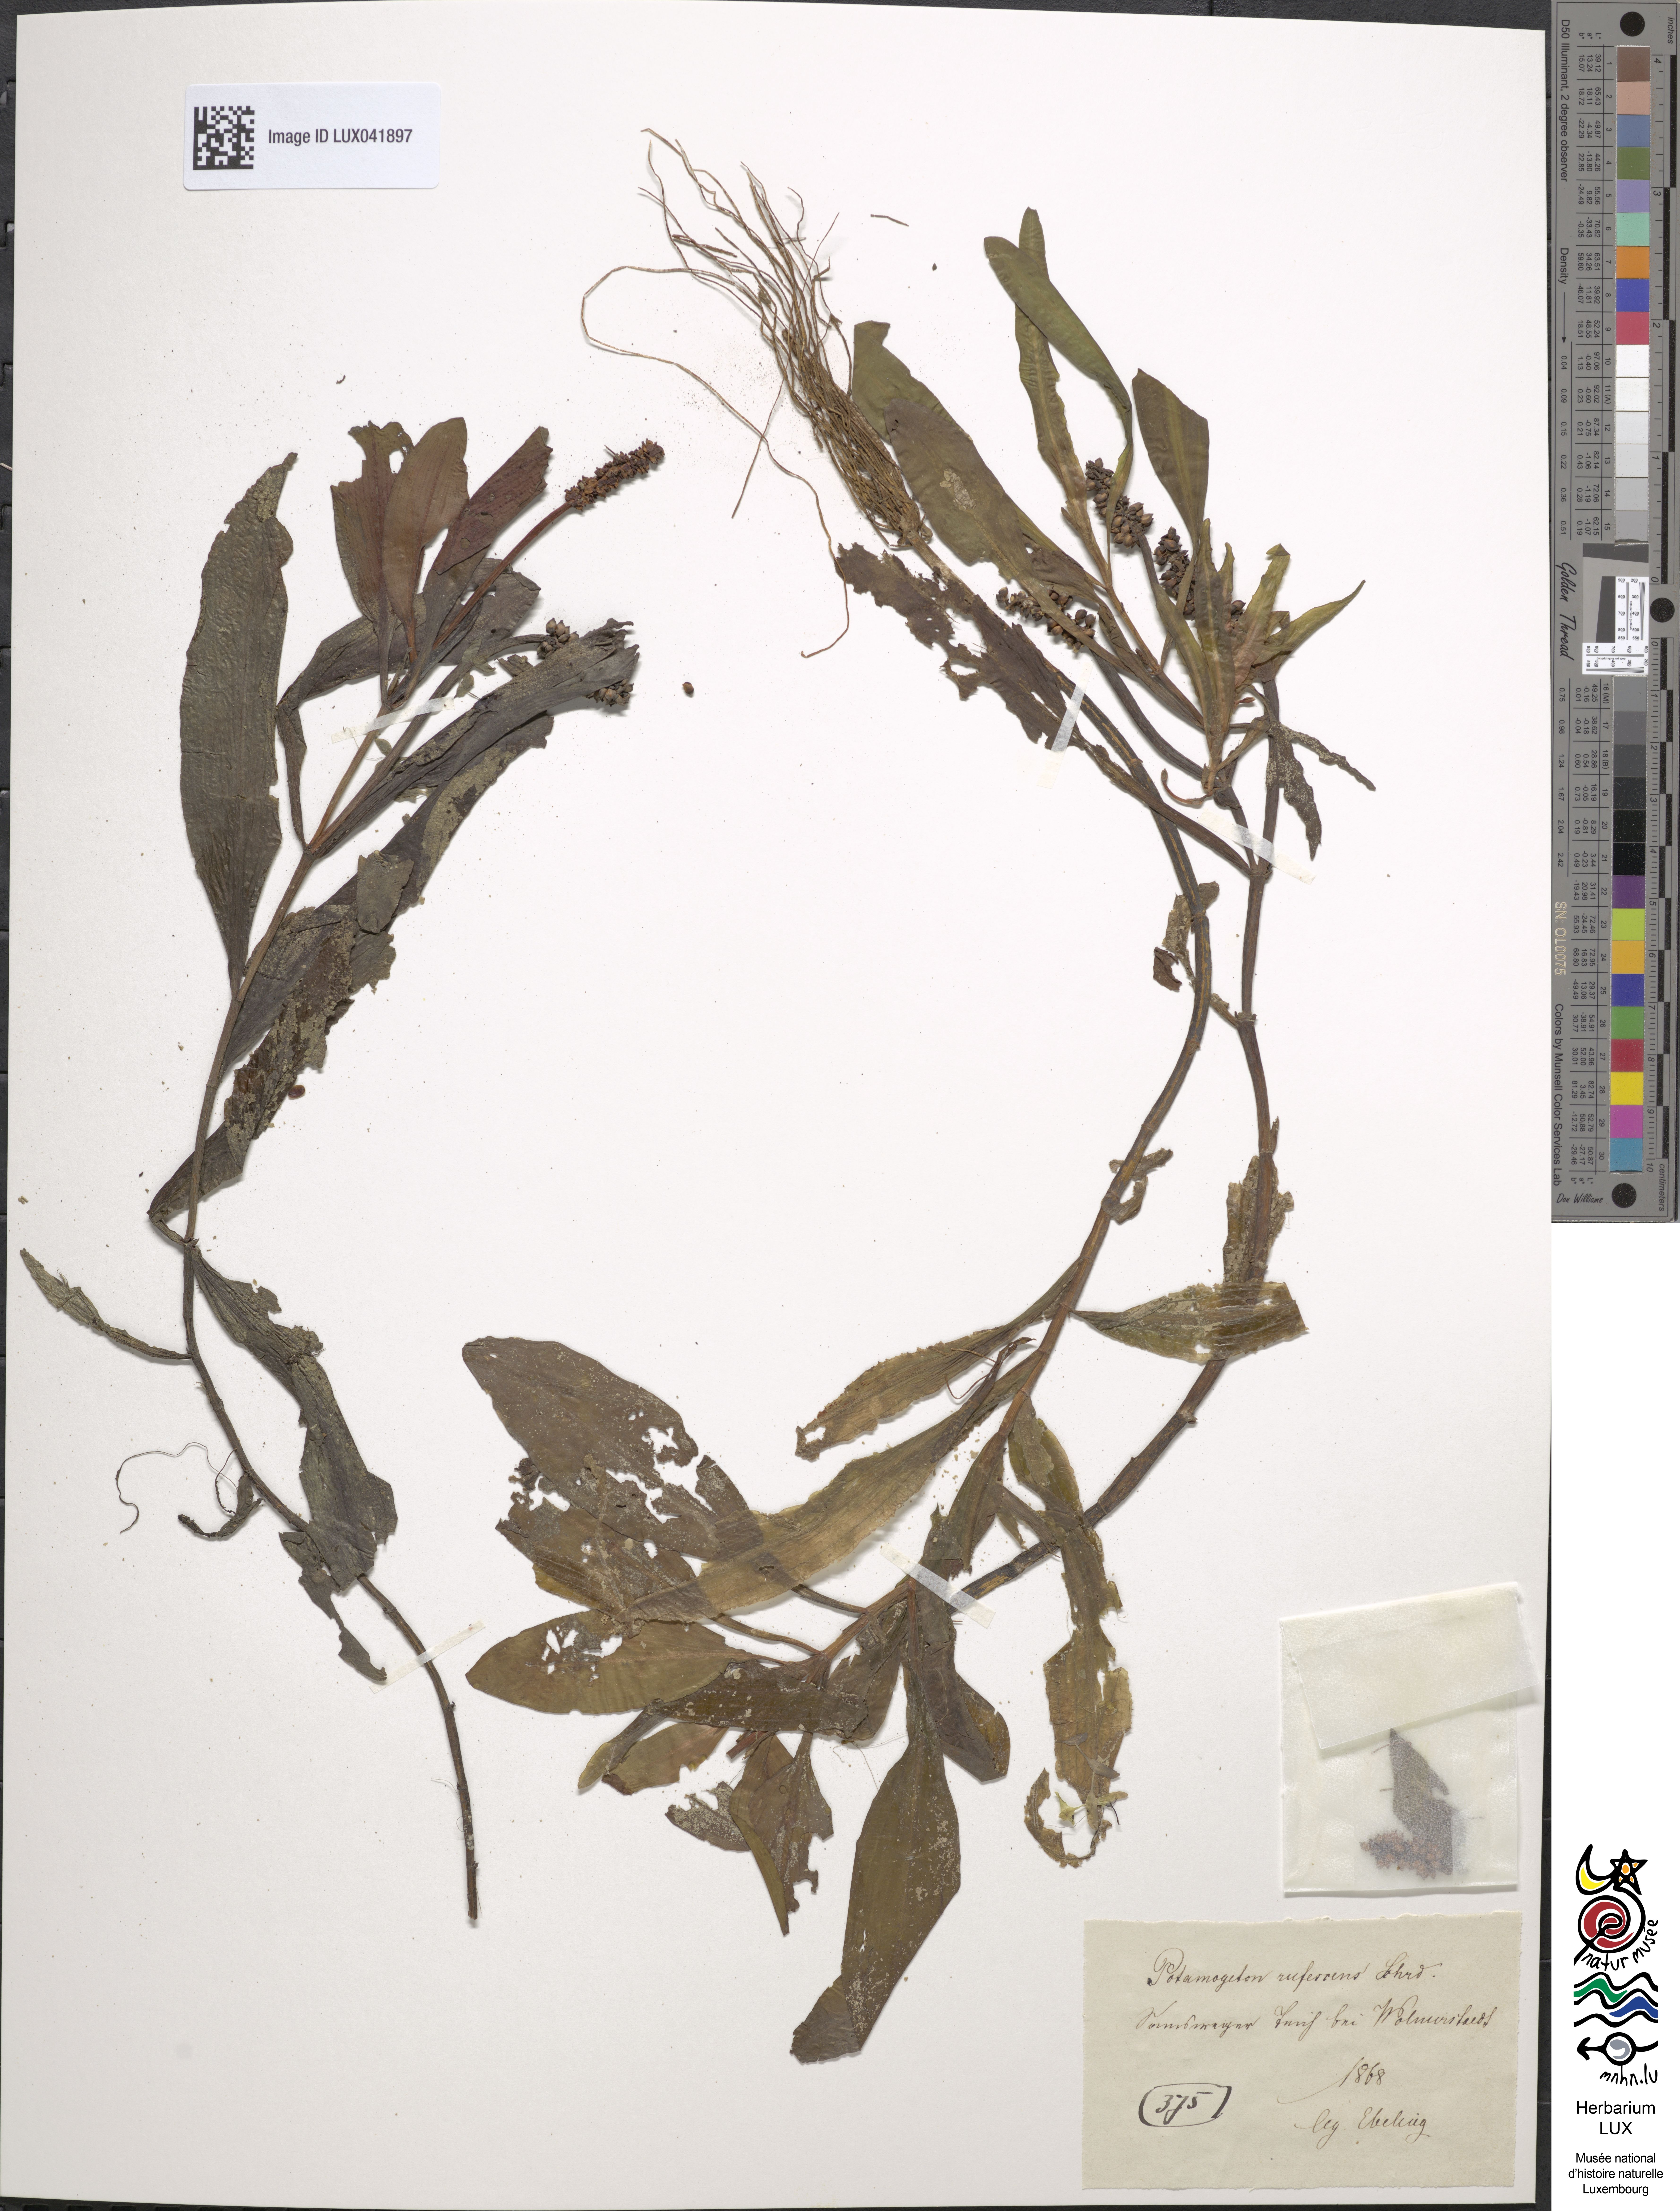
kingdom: Plantae
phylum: Tracheophyta
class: Liliopsida
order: Alismatales
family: Potamogetonaceae
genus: Potamogeton
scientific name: Potamogeton alpinus
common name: Red pondweed
